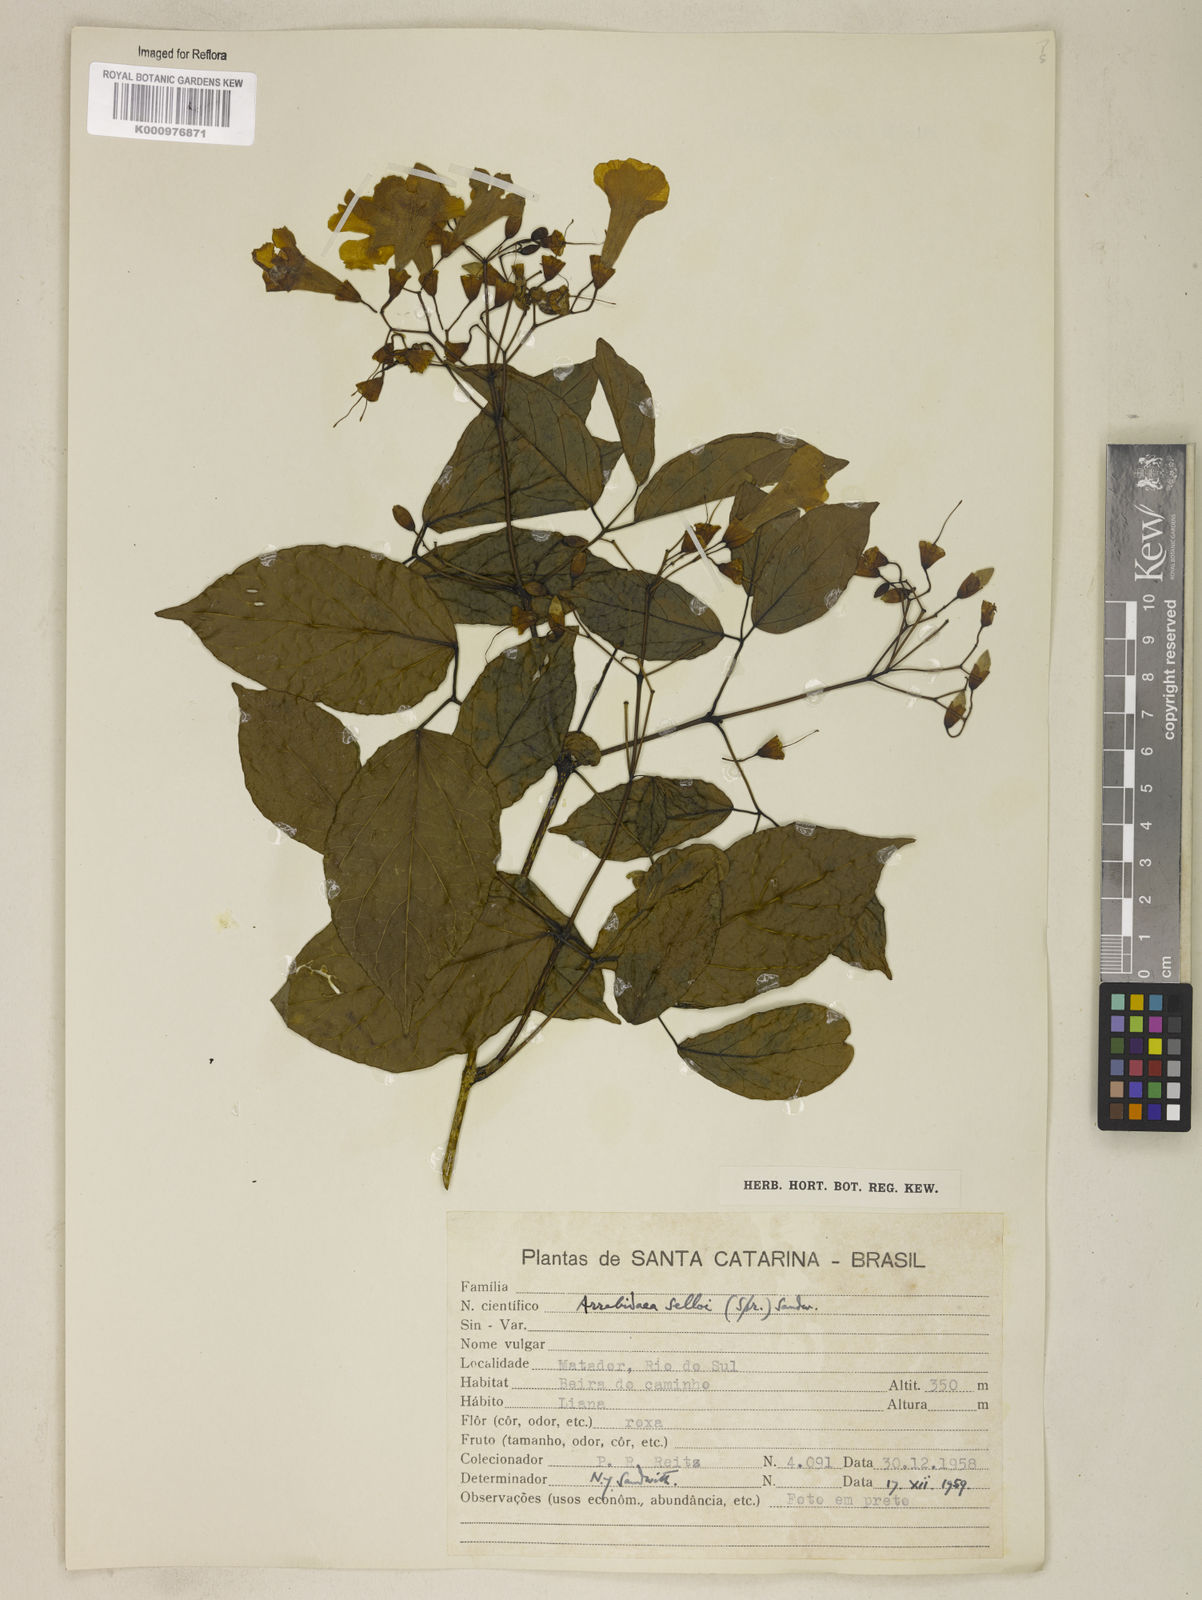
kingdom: Plantae
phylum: Tracheophyta
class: Magnoliopsida
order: Lamiales
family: Bignoniaceae
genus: Tanaecium
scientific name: Tanaecium selloi
